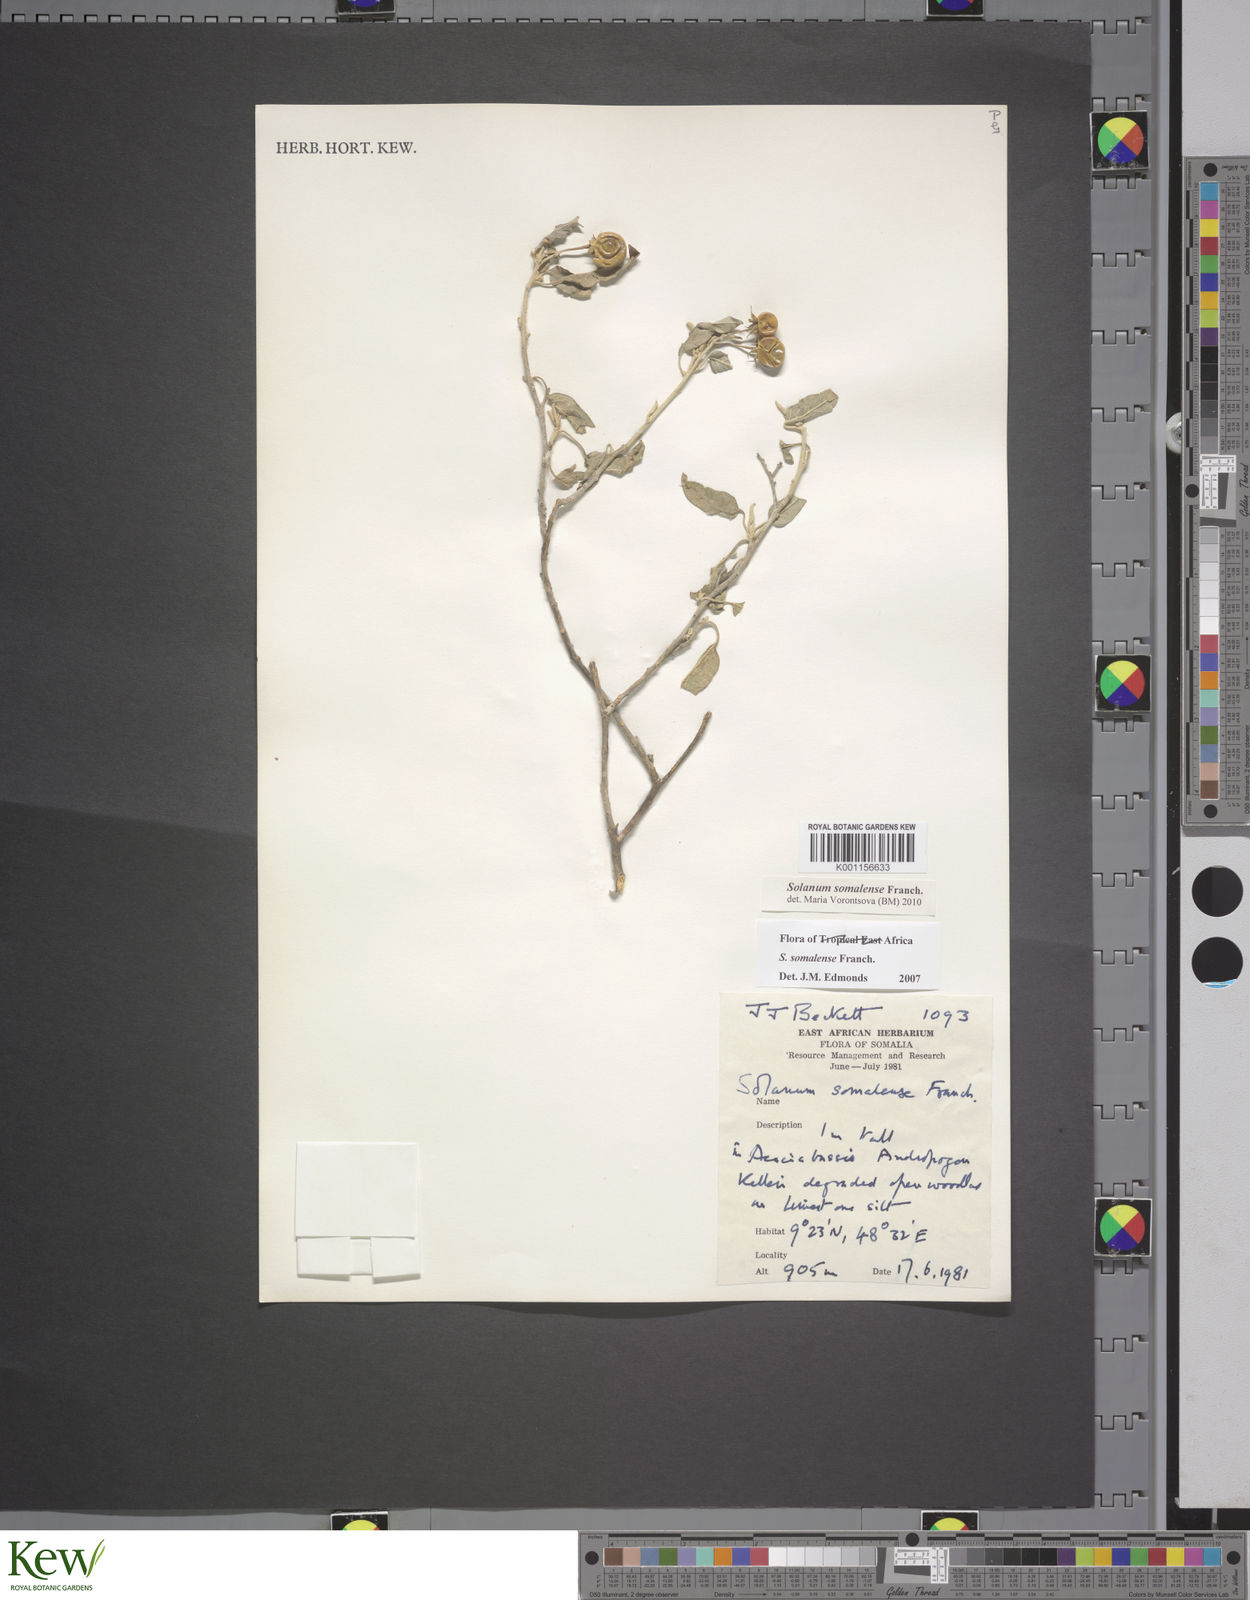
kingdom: Plantae
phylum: Tracheophyta
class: Magnoliopsida
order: Solanales
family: Solanaceae
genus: Solanum
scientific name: Solanum somalense
